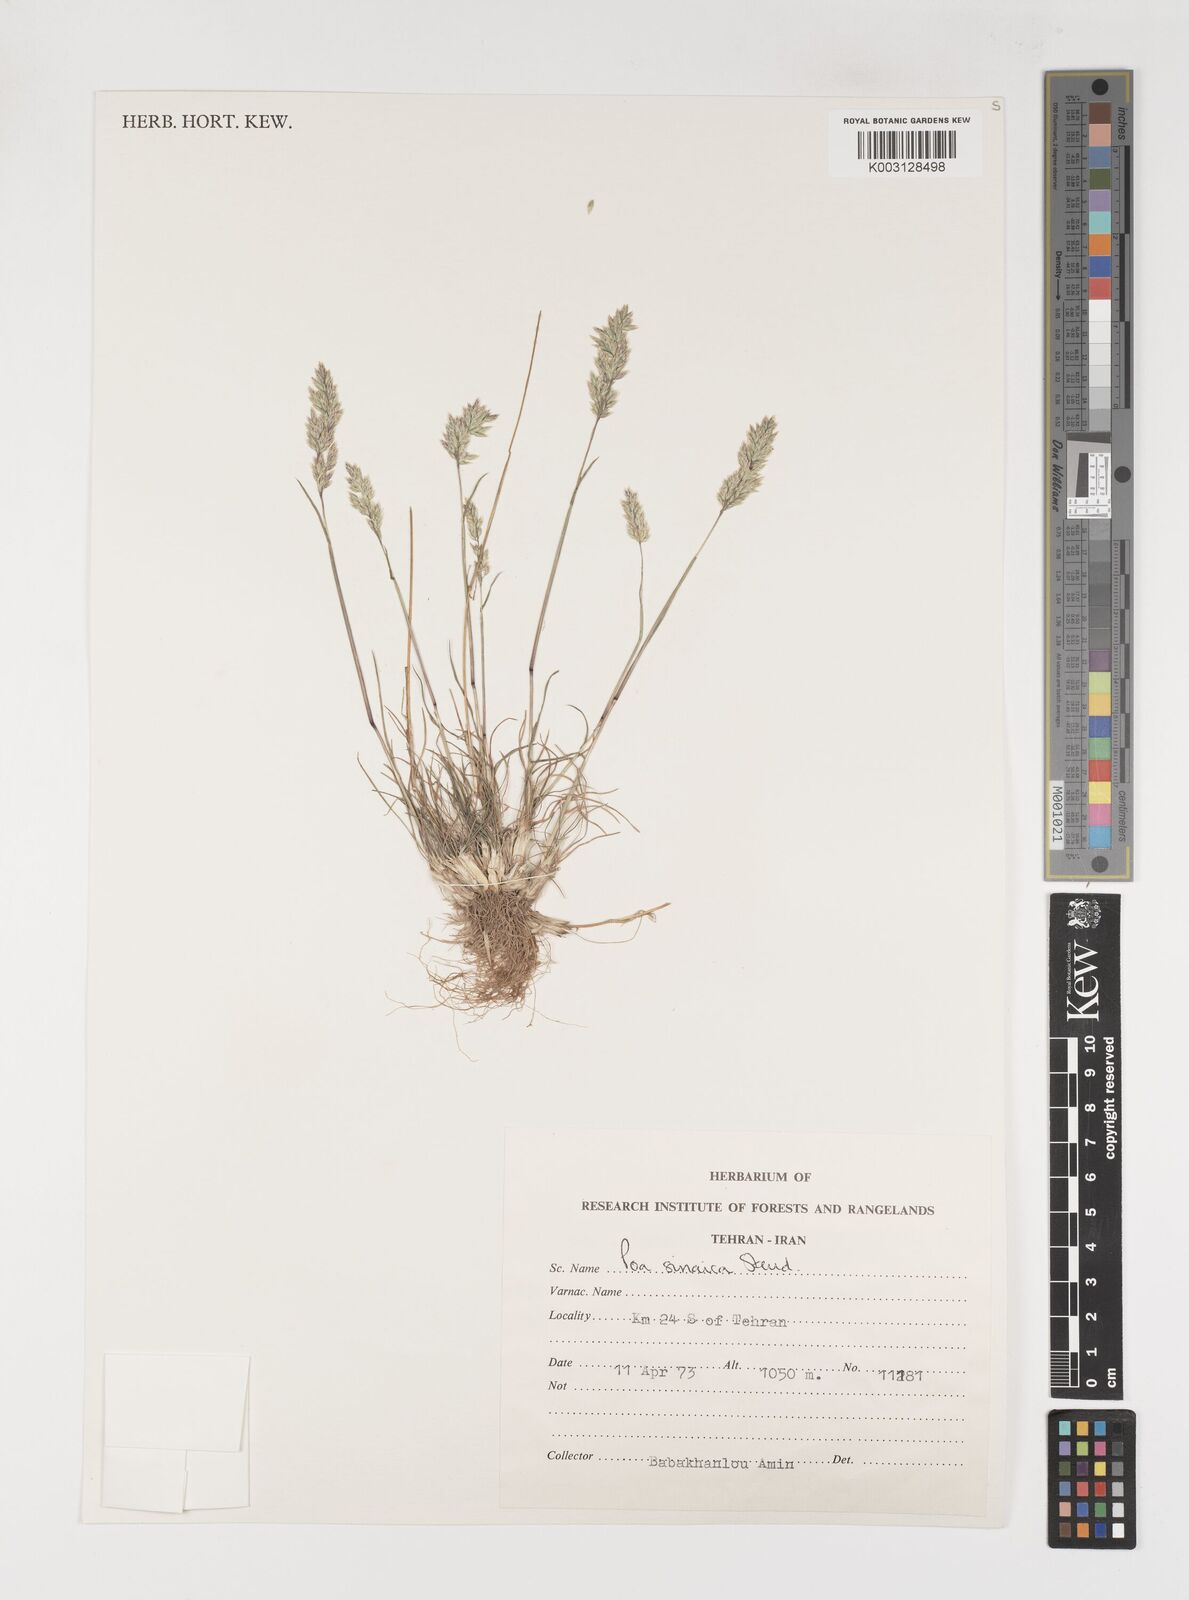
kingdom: Plantae
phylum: Tracheophyta
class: Liliopsida
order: Poales
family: Poaceae
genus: Poa
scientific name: Poa sinaica
